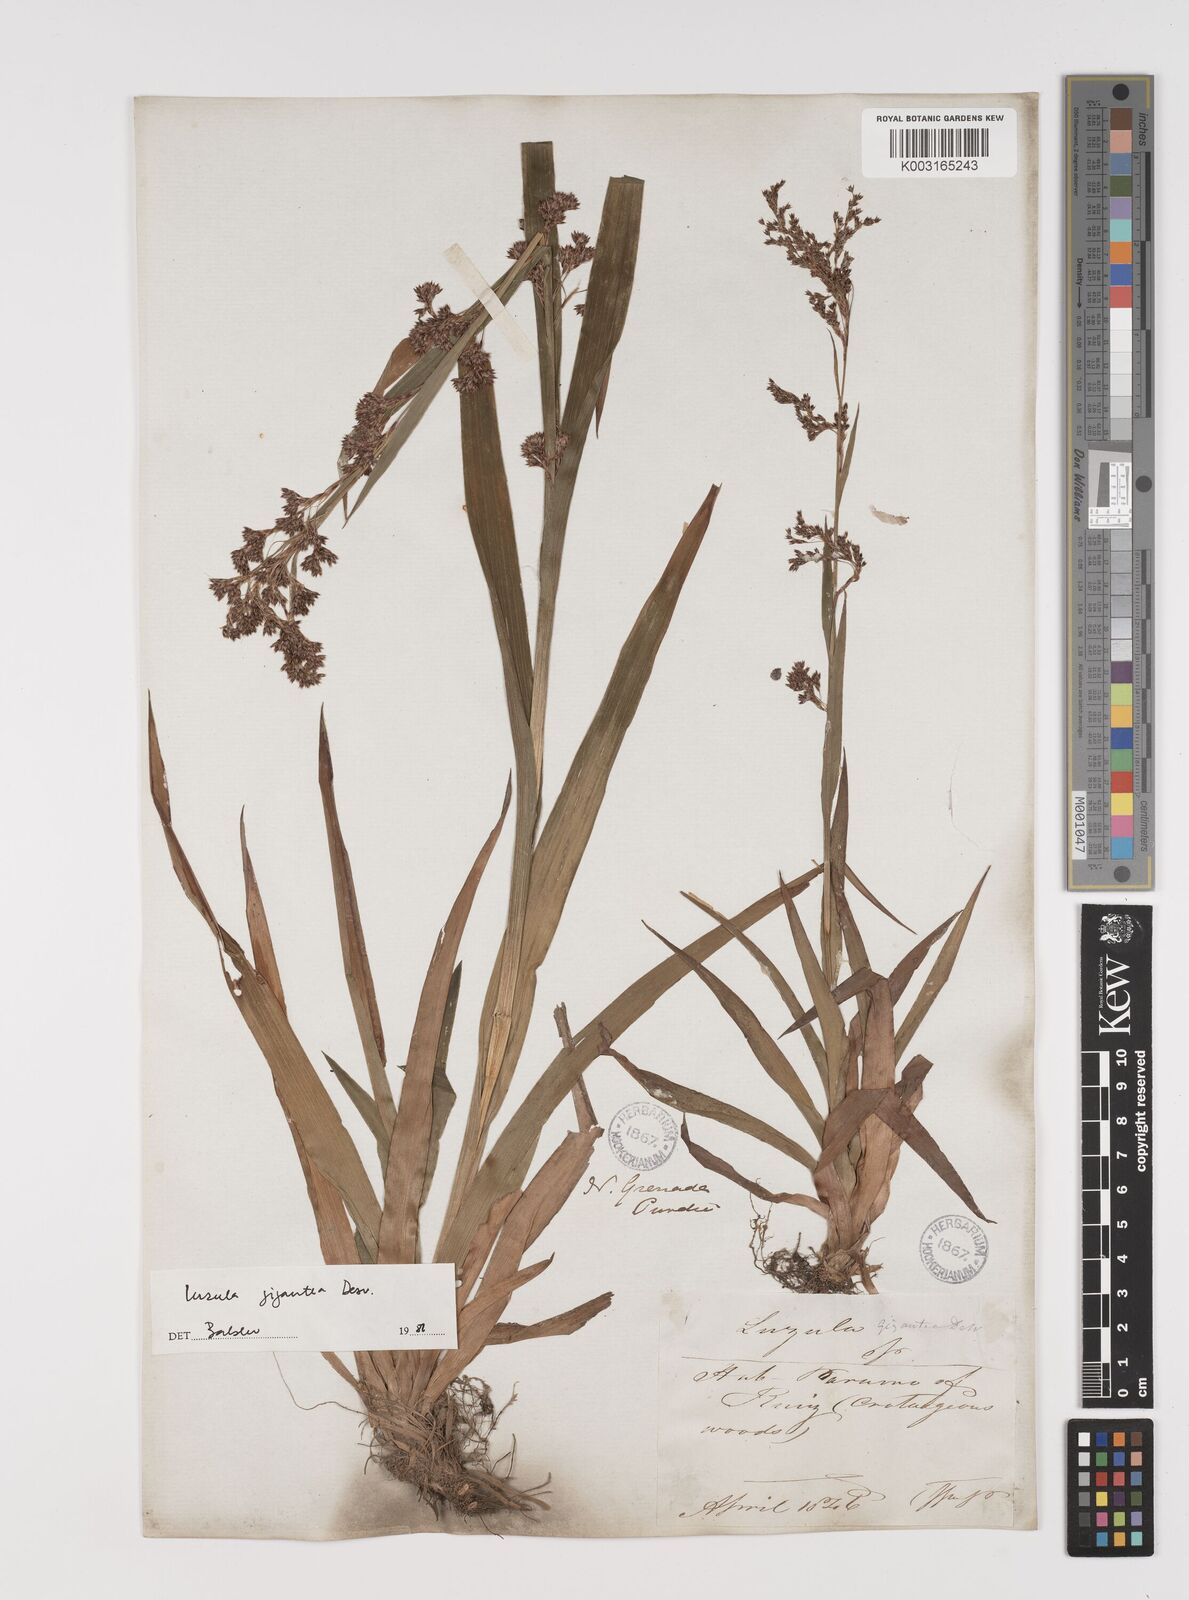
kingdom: Plantae
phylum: Tracheophyta
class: Liliopsida
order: Poales
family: Juncaceae
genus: Luzula
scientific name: Luzula gigantea
